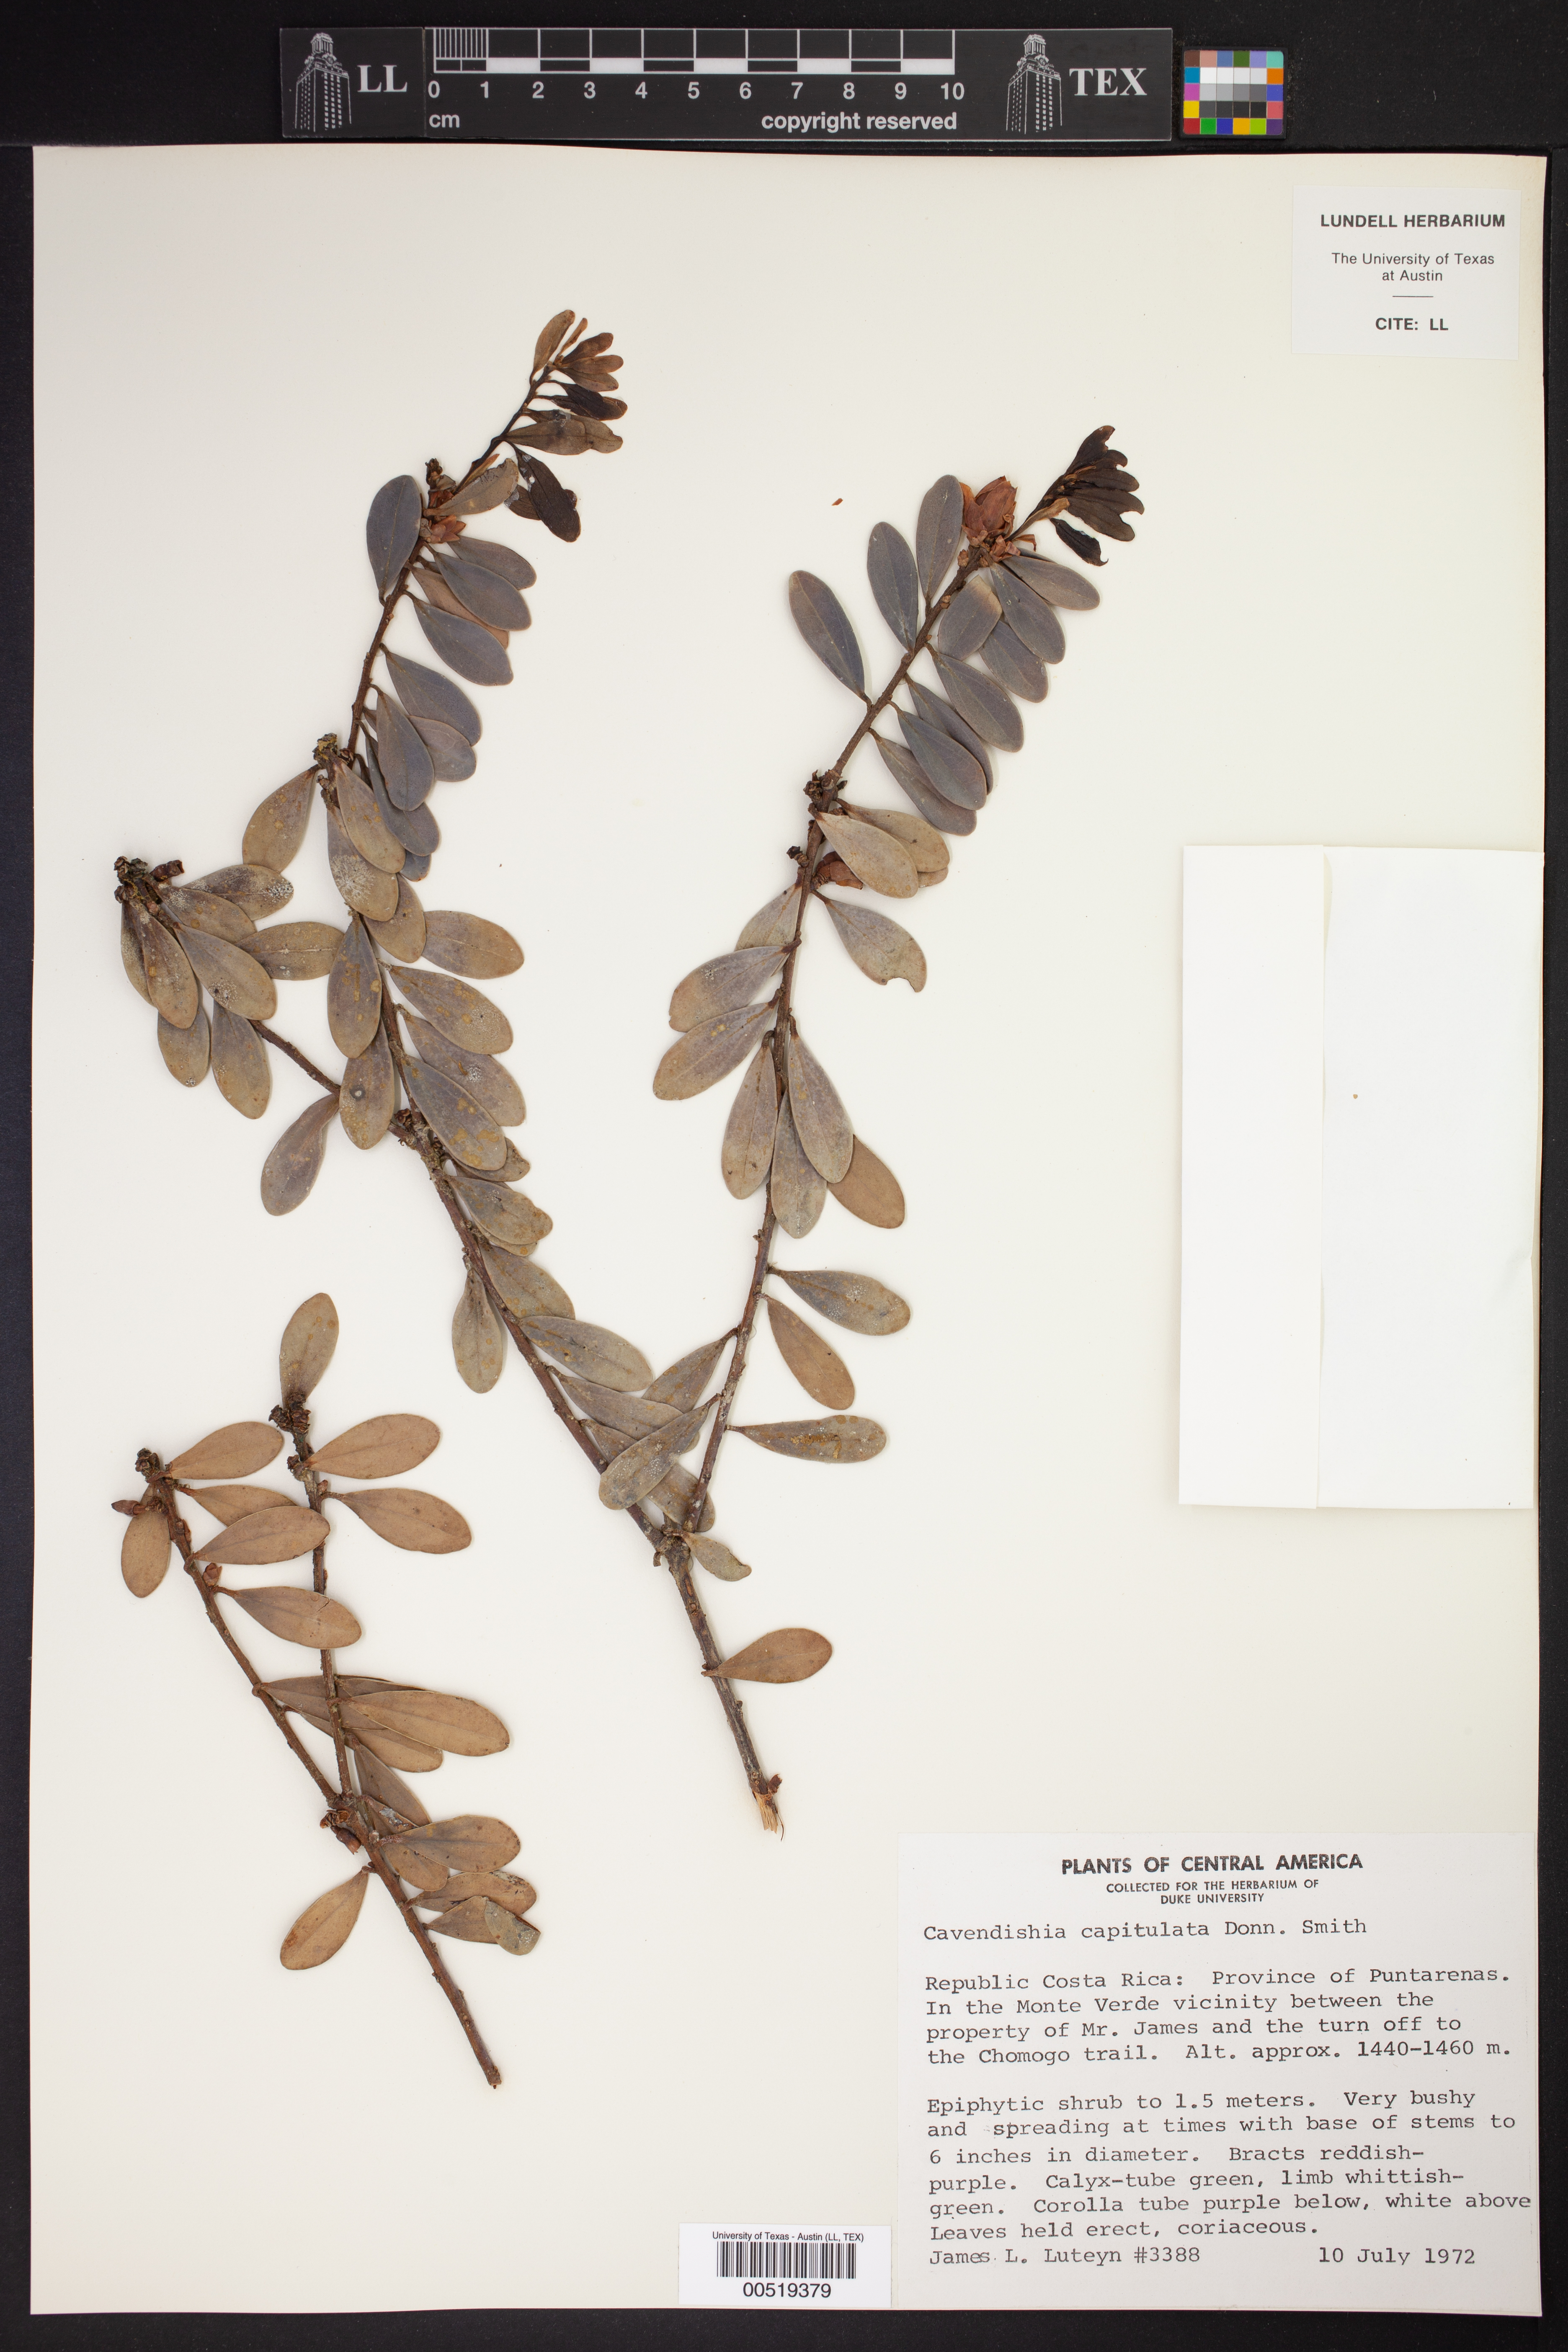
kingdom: Plantae
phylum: Tracheophyta
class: Magnoliopsida
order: Ericales
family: Ericaceae
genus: Cavendishia
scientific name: Cavendishia capitulata
